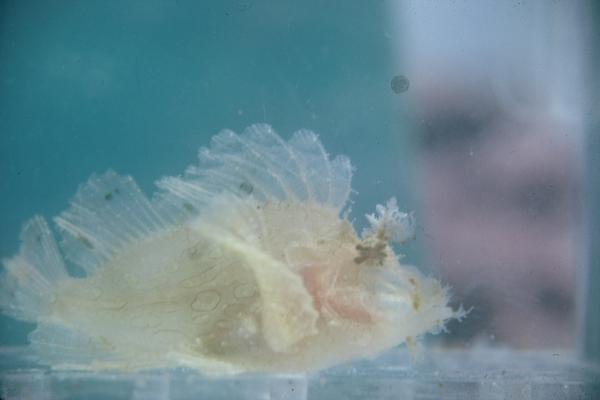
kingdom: Animalia
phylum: Chordata
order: Scorpaeniformes
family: Scorpaenidae
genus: Rhinopias
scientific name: Rhinopias frondosa
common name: Weedy scorpionfish
